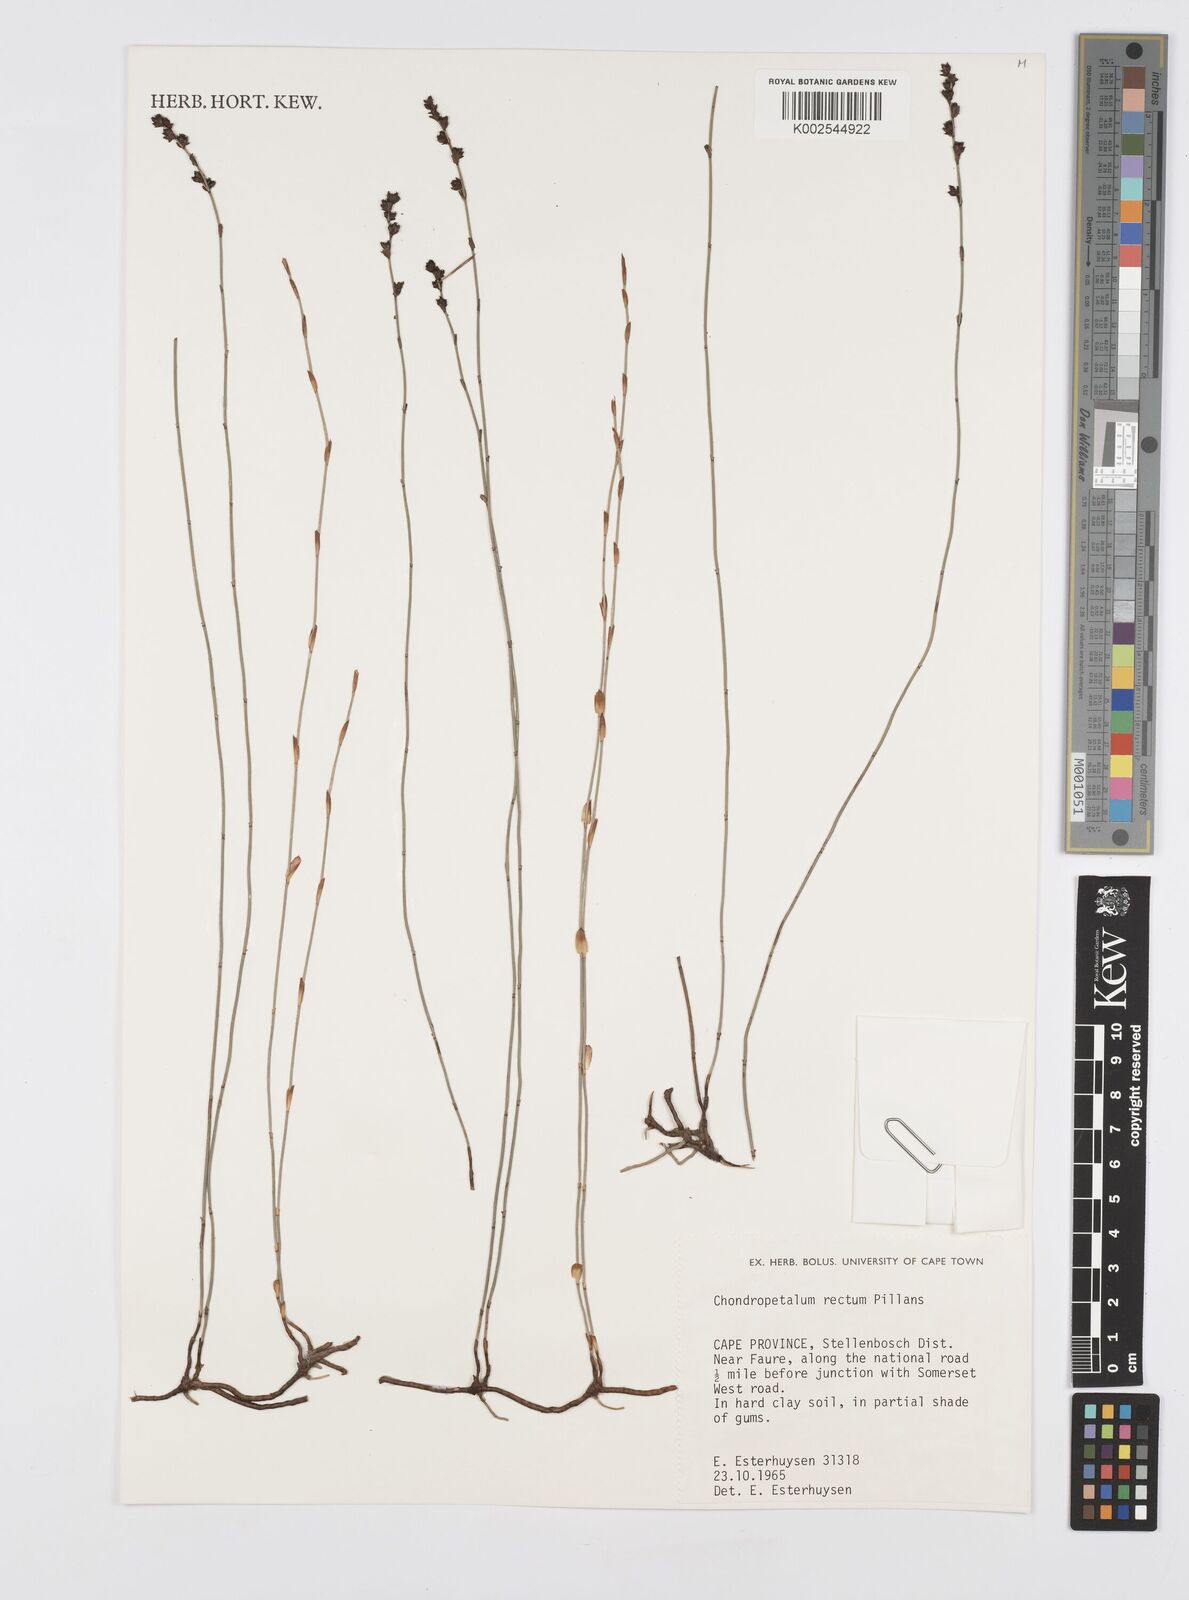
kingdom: Plantae
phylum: Tracheophyta
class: Liliopsida
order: Poales
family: Restionaceae
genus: Elegia
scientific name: Elegia recta
